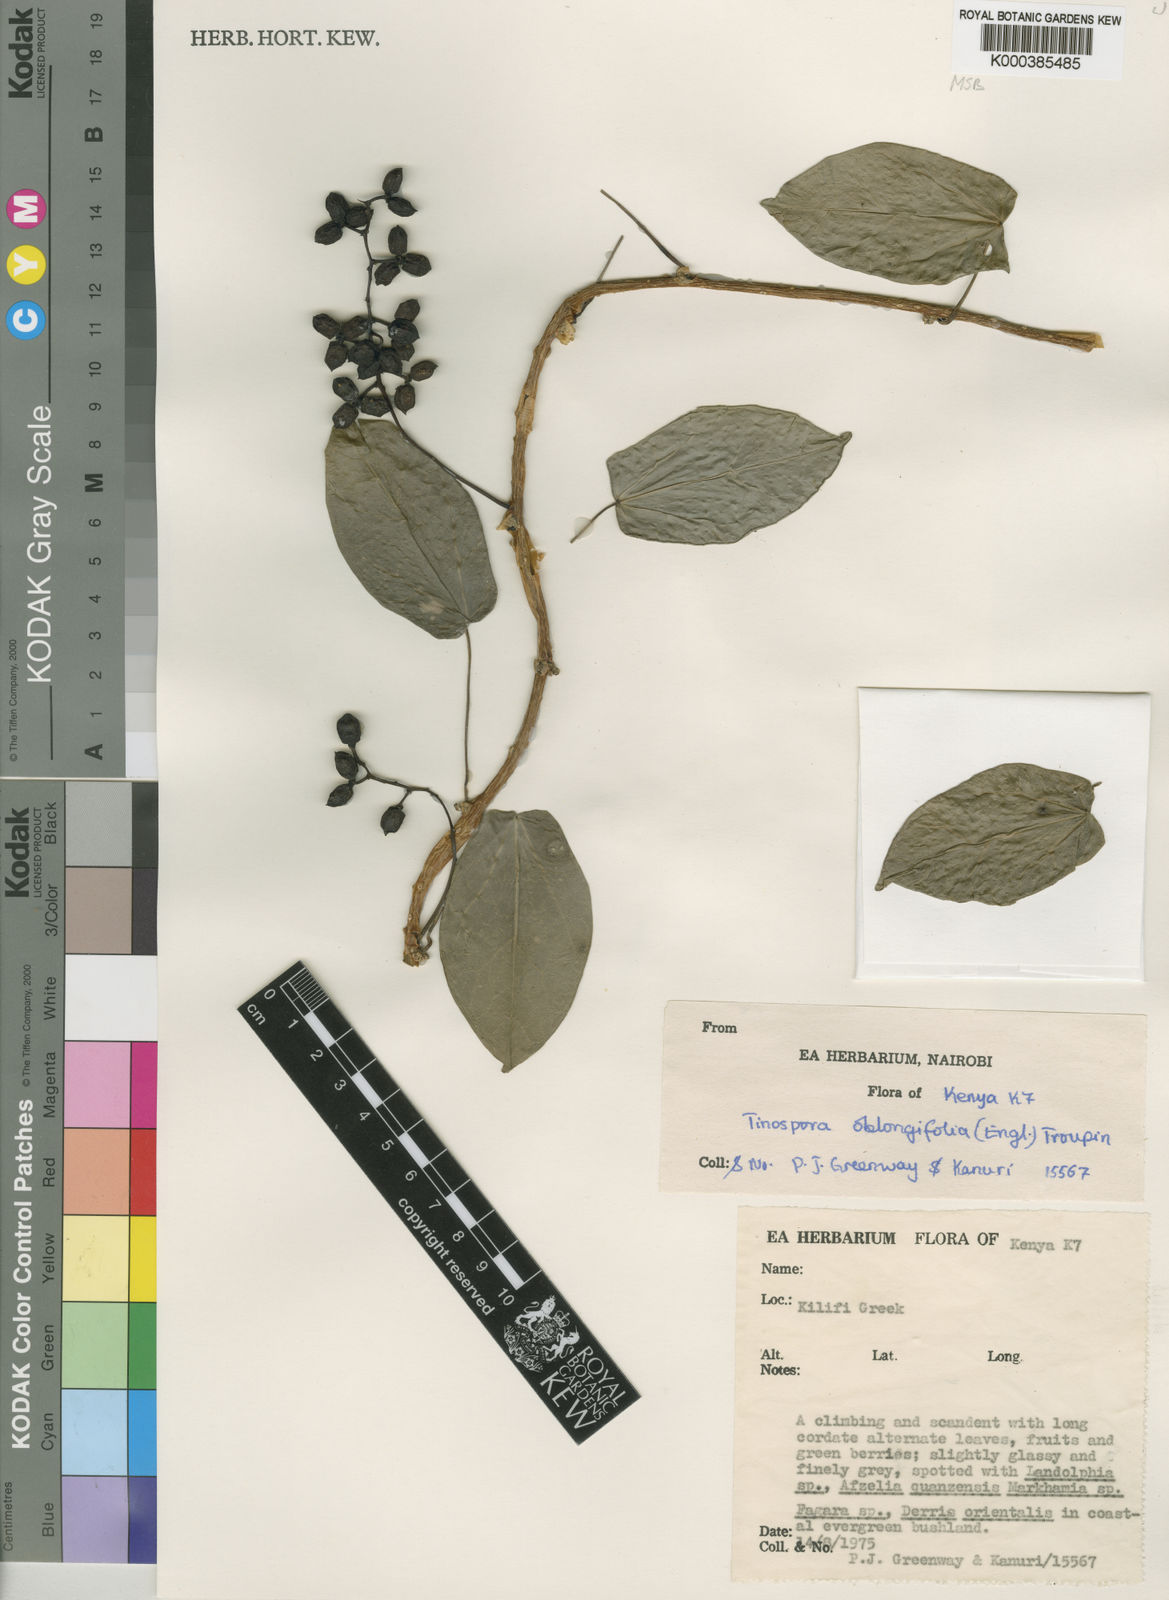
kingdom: Plantae
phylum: Tracheophyta
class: Magnoliopsida
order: Ranunculales
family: Menispermaceae
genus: Tinospora
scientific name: Tinospora oblongifolia
